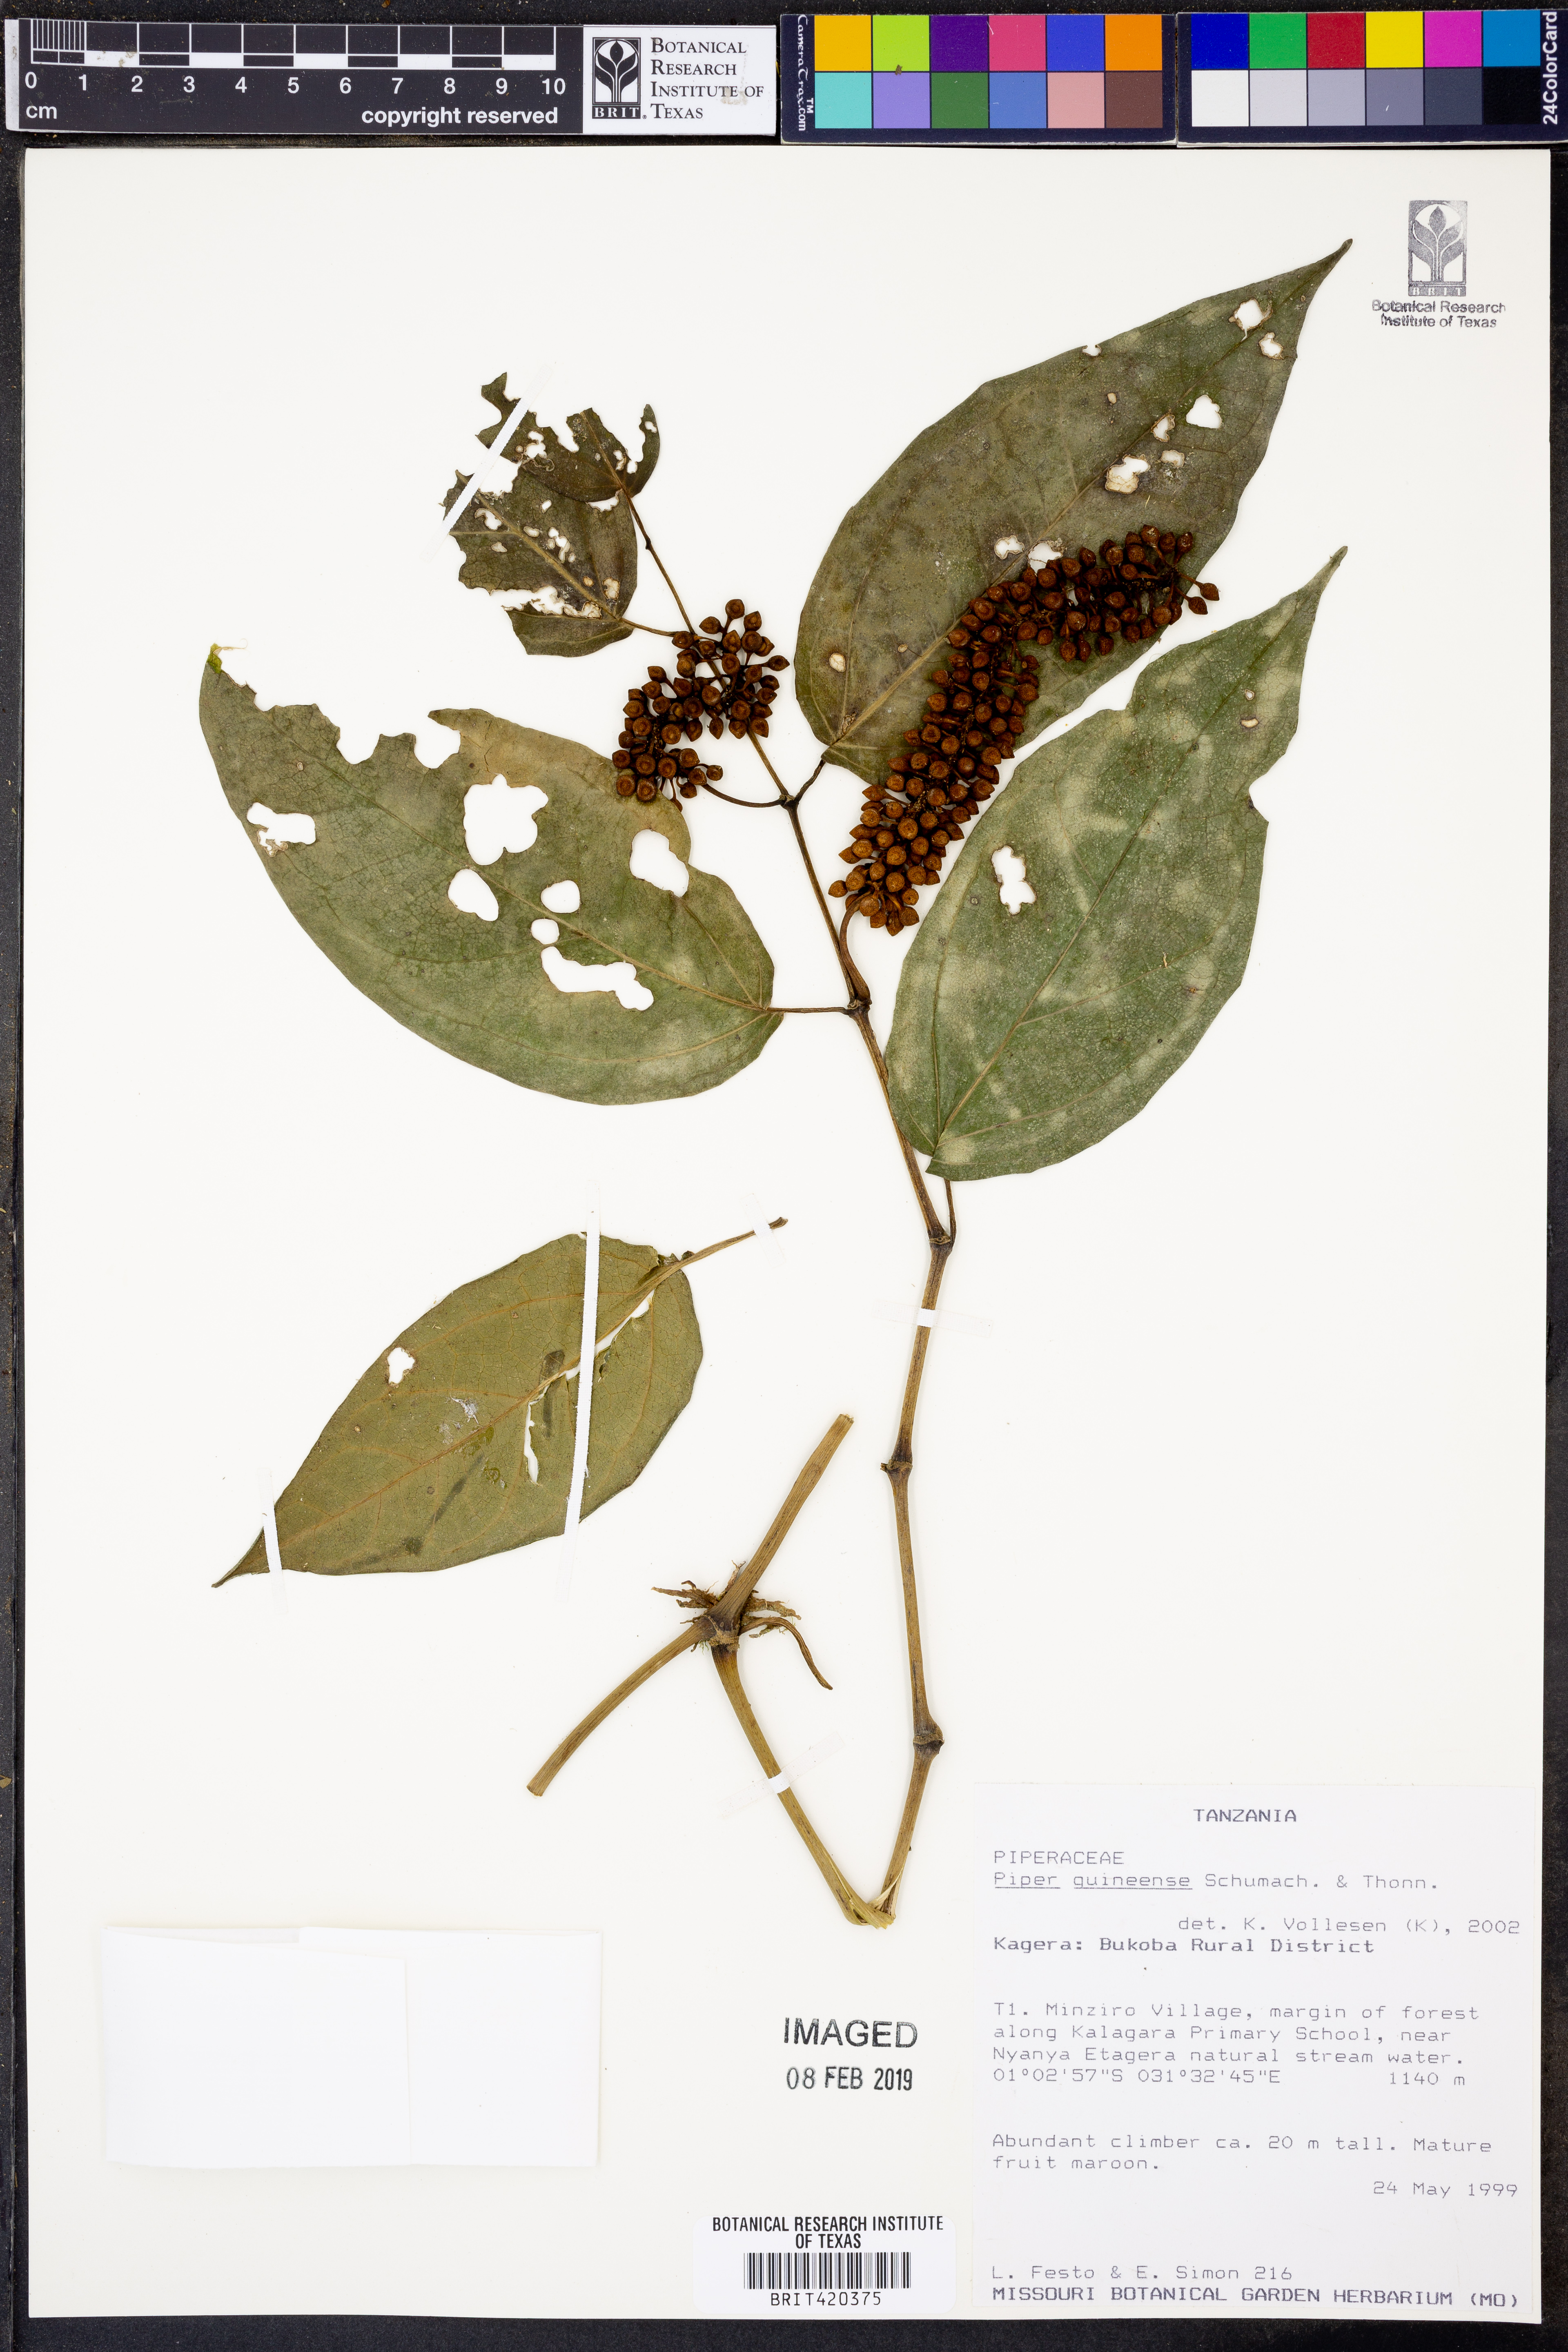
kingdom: Plantae
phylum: Tracheophyta
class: Magnoliopsida
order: Piperales
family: Piperaceae
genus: Piper
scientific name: Piper guineense
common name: Benin pepper
